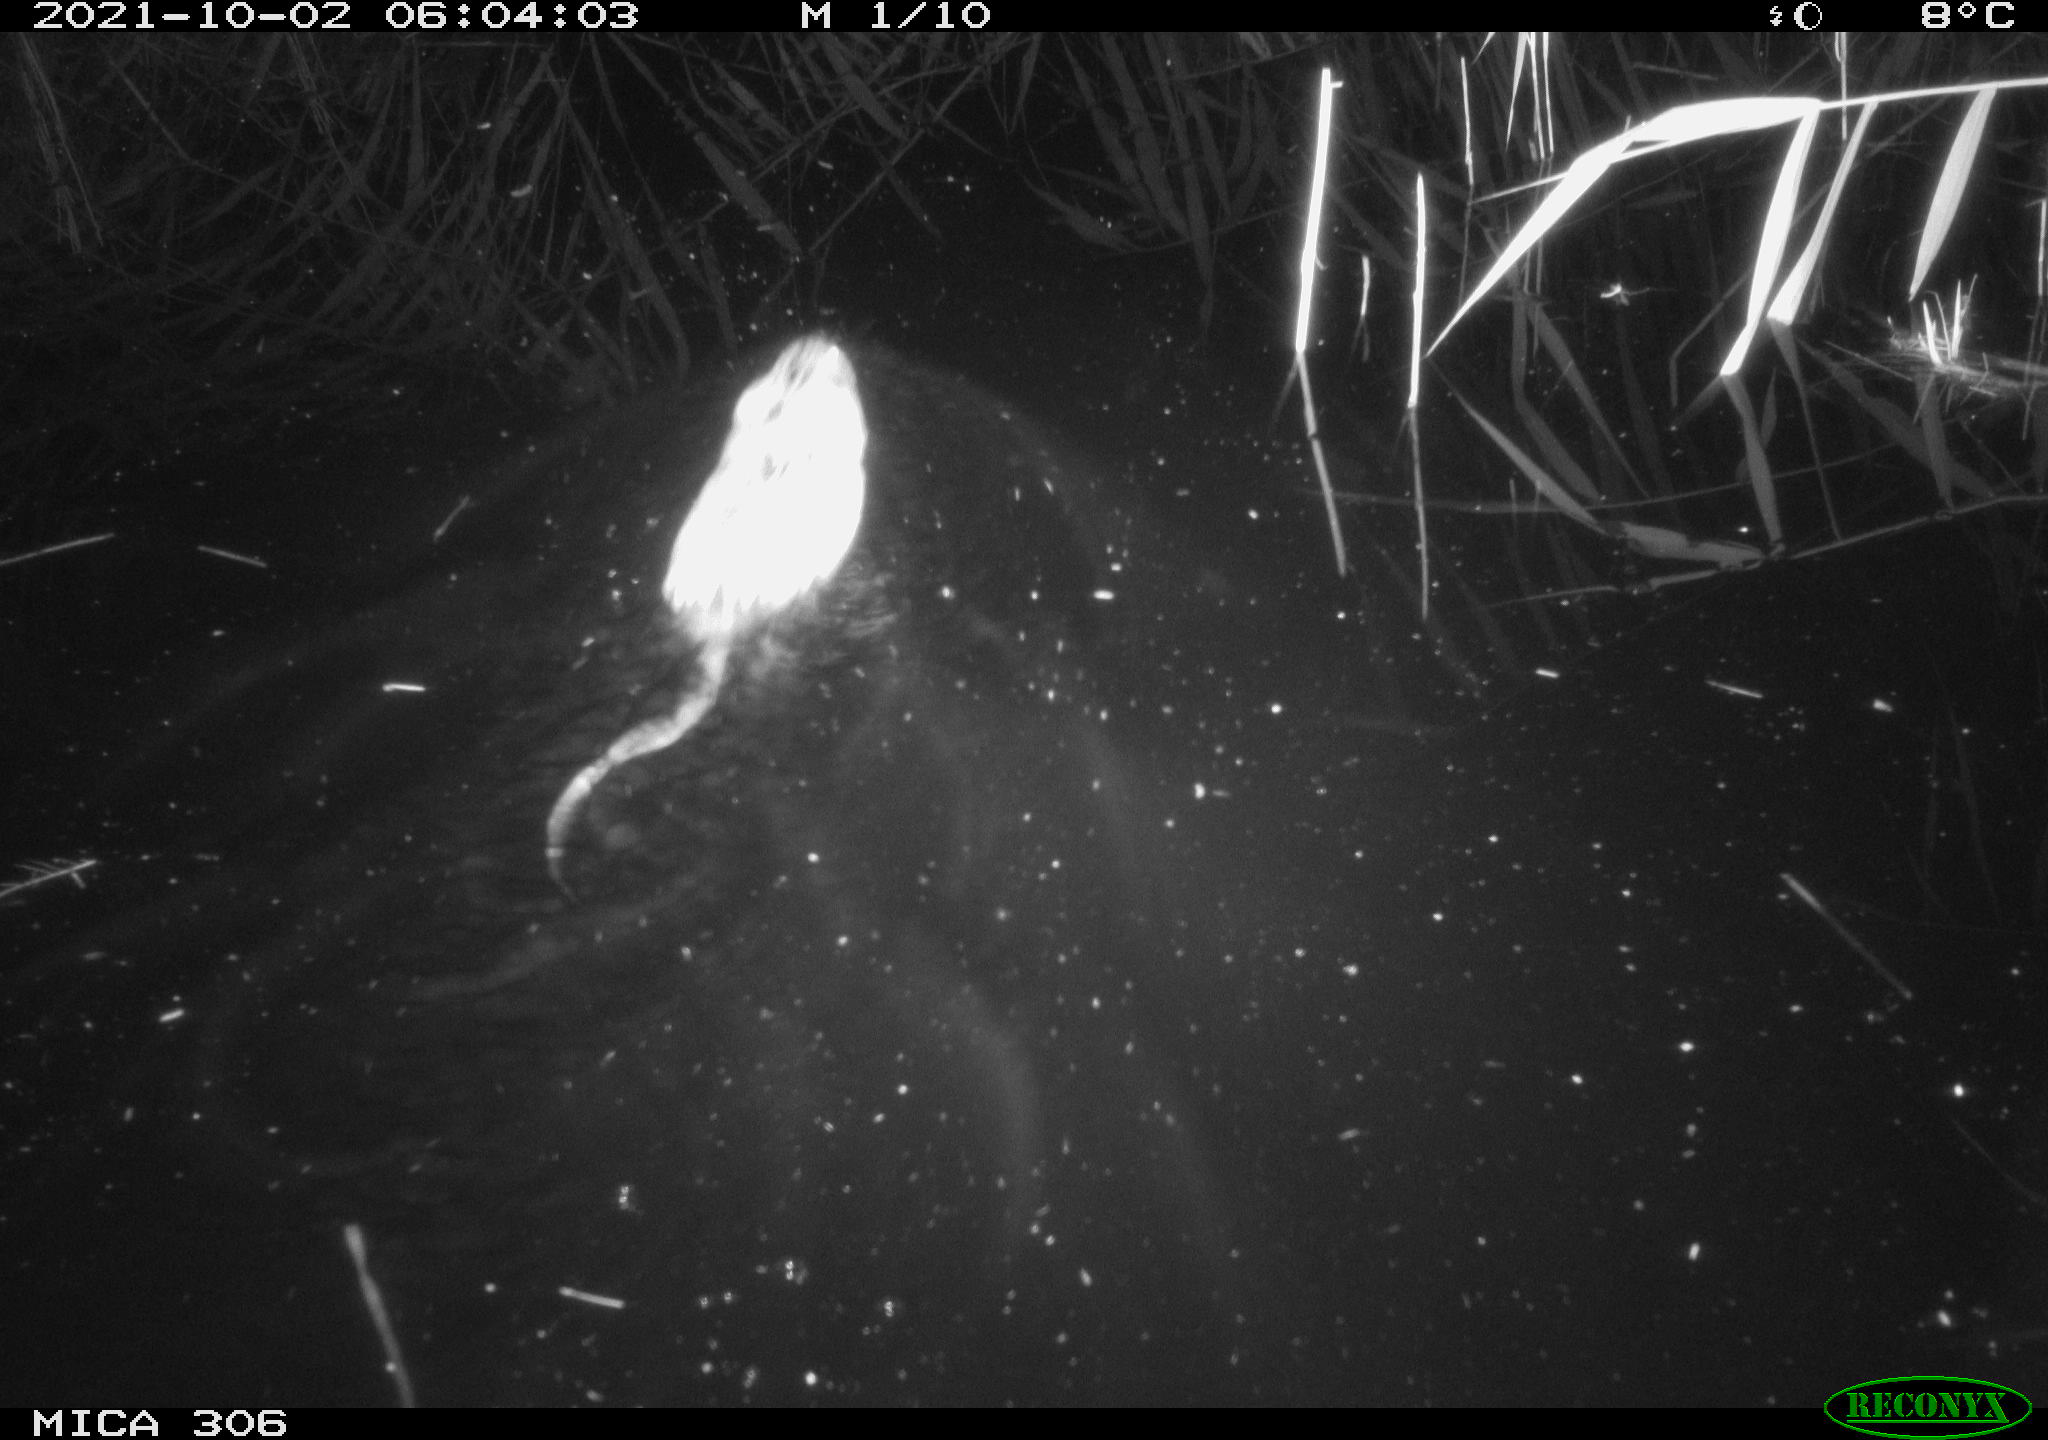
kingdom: Animalia
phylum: Chordata
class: Mammalia
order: Rodentia
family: Cricetidae
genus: Ondatra
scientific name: Ondatra zibethicus
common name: Muskrat
